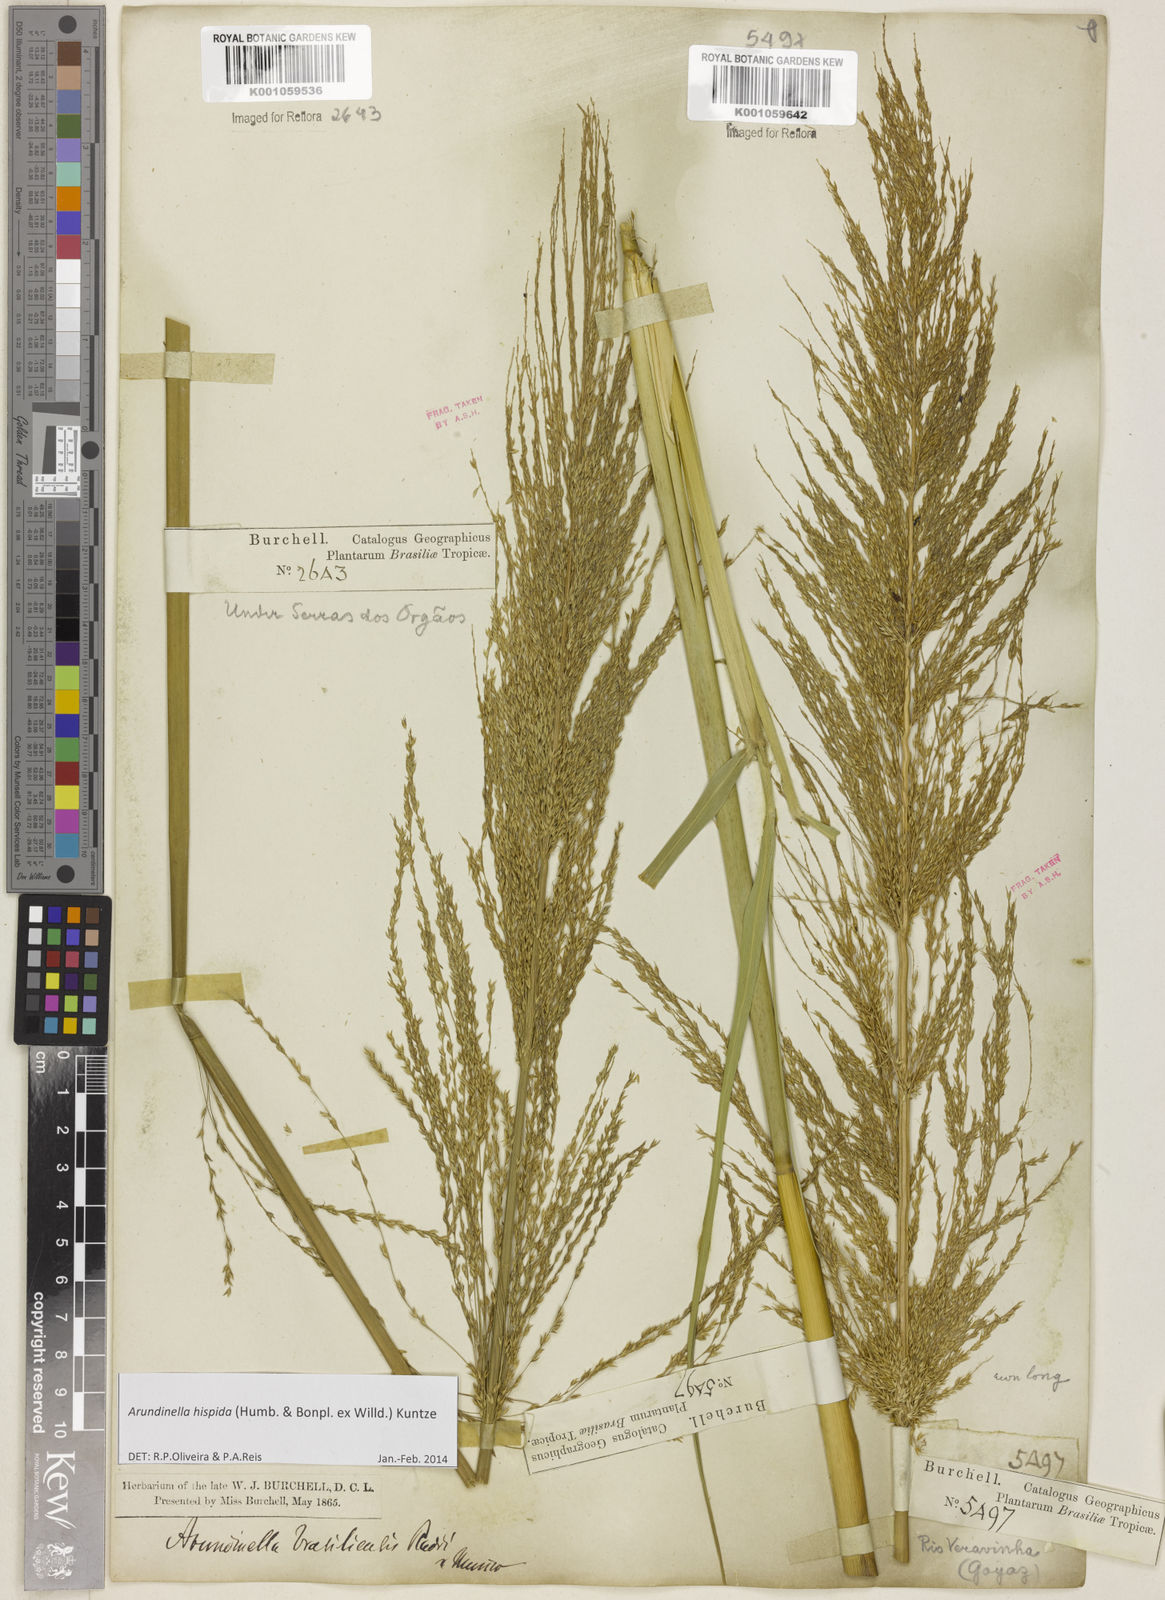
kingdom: Plantae
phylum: Tracheophyta
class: Liliopsida
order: Poales
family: Poaceae
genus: Arundinella
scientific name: Arundinella hispida
